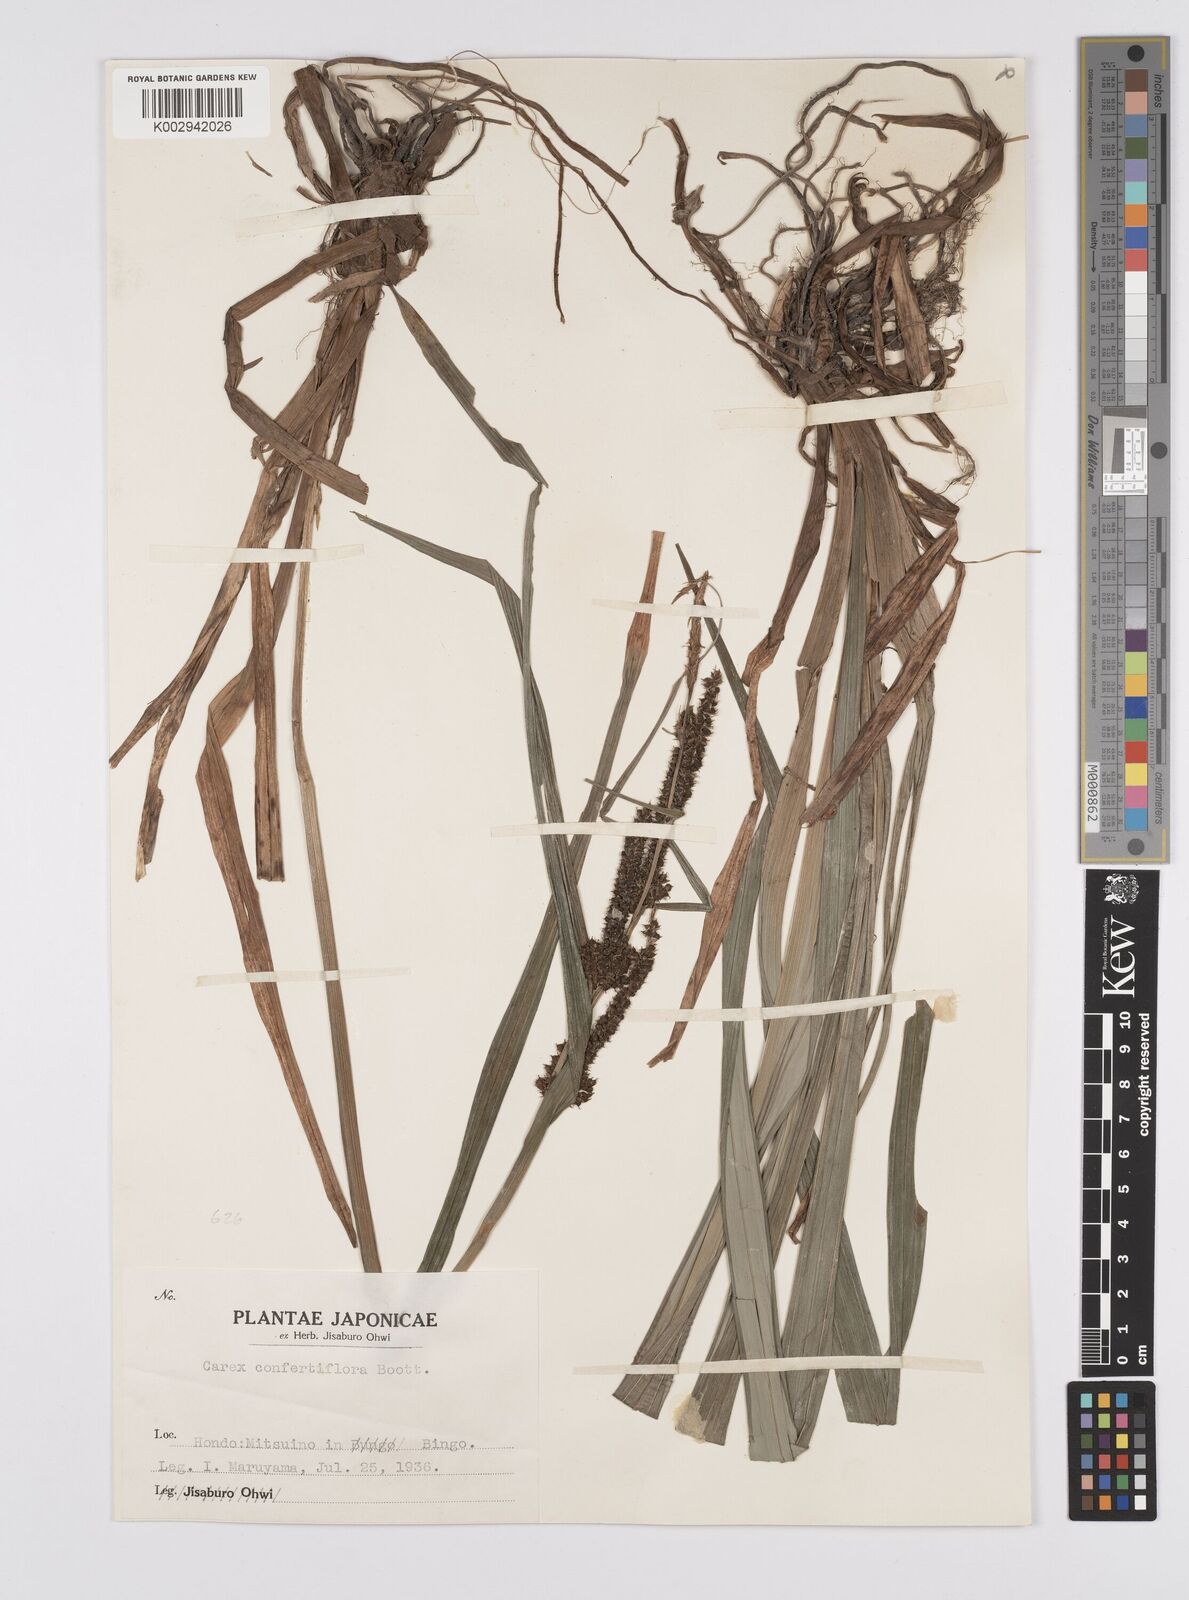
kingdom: Plantae
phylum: Tracheophyta
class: Liliopsida
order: Poales
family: Cyperaceae
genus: Carex
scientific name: Carex olivacea
